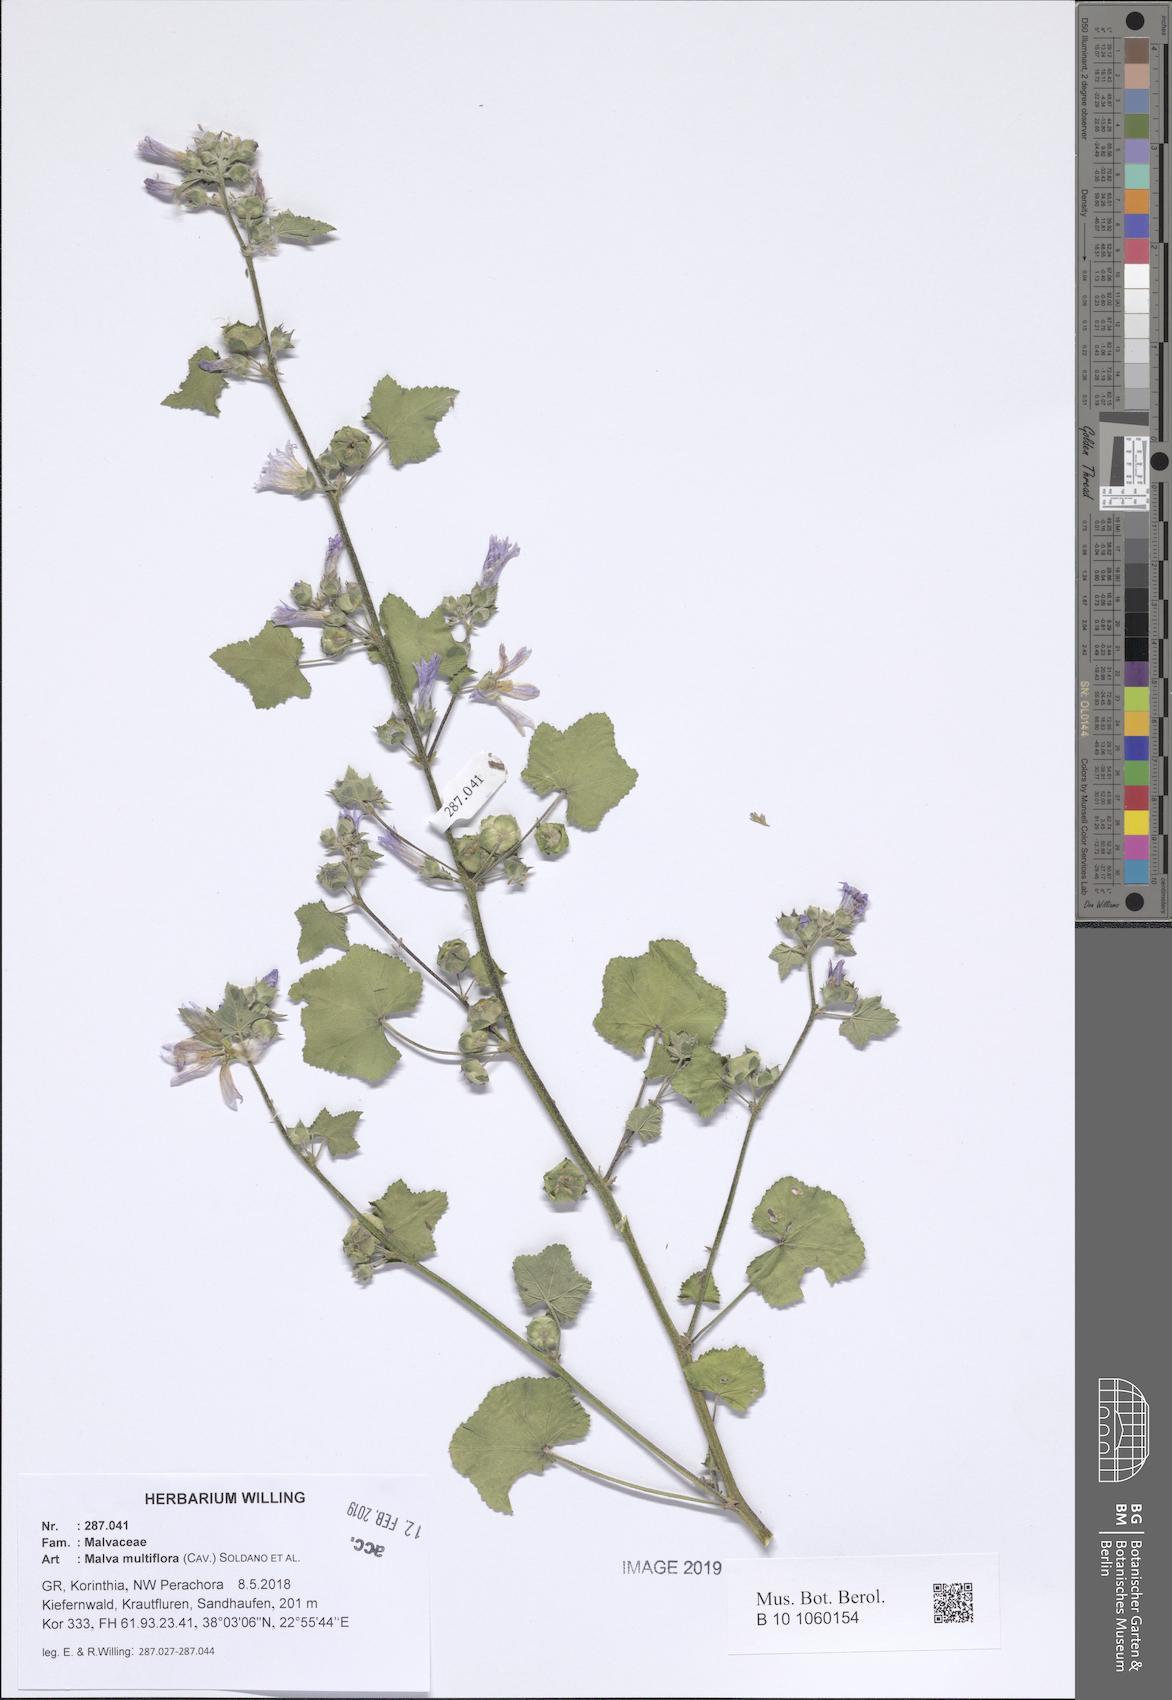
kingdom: Plantae
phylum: Tracheophyta
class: Magnoliopsida
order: Malvales
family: Malvaceae
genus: Malva
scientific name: Malva multiflora
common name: Cheeseweed
